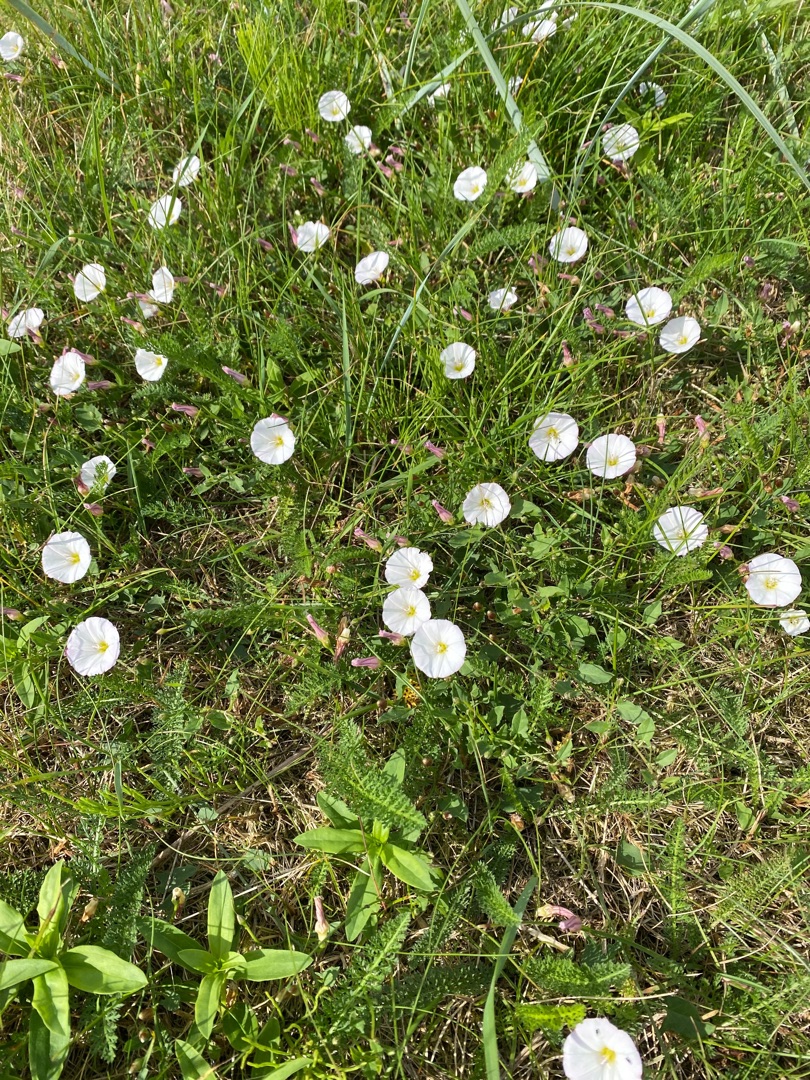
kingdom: Plantae
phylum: Tracheophyta
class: Magnoliopsida
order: Solanales
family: Convolvulaceae
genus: Convolvulus
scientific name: Convolvulus arvensis
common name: Ager-snerle
